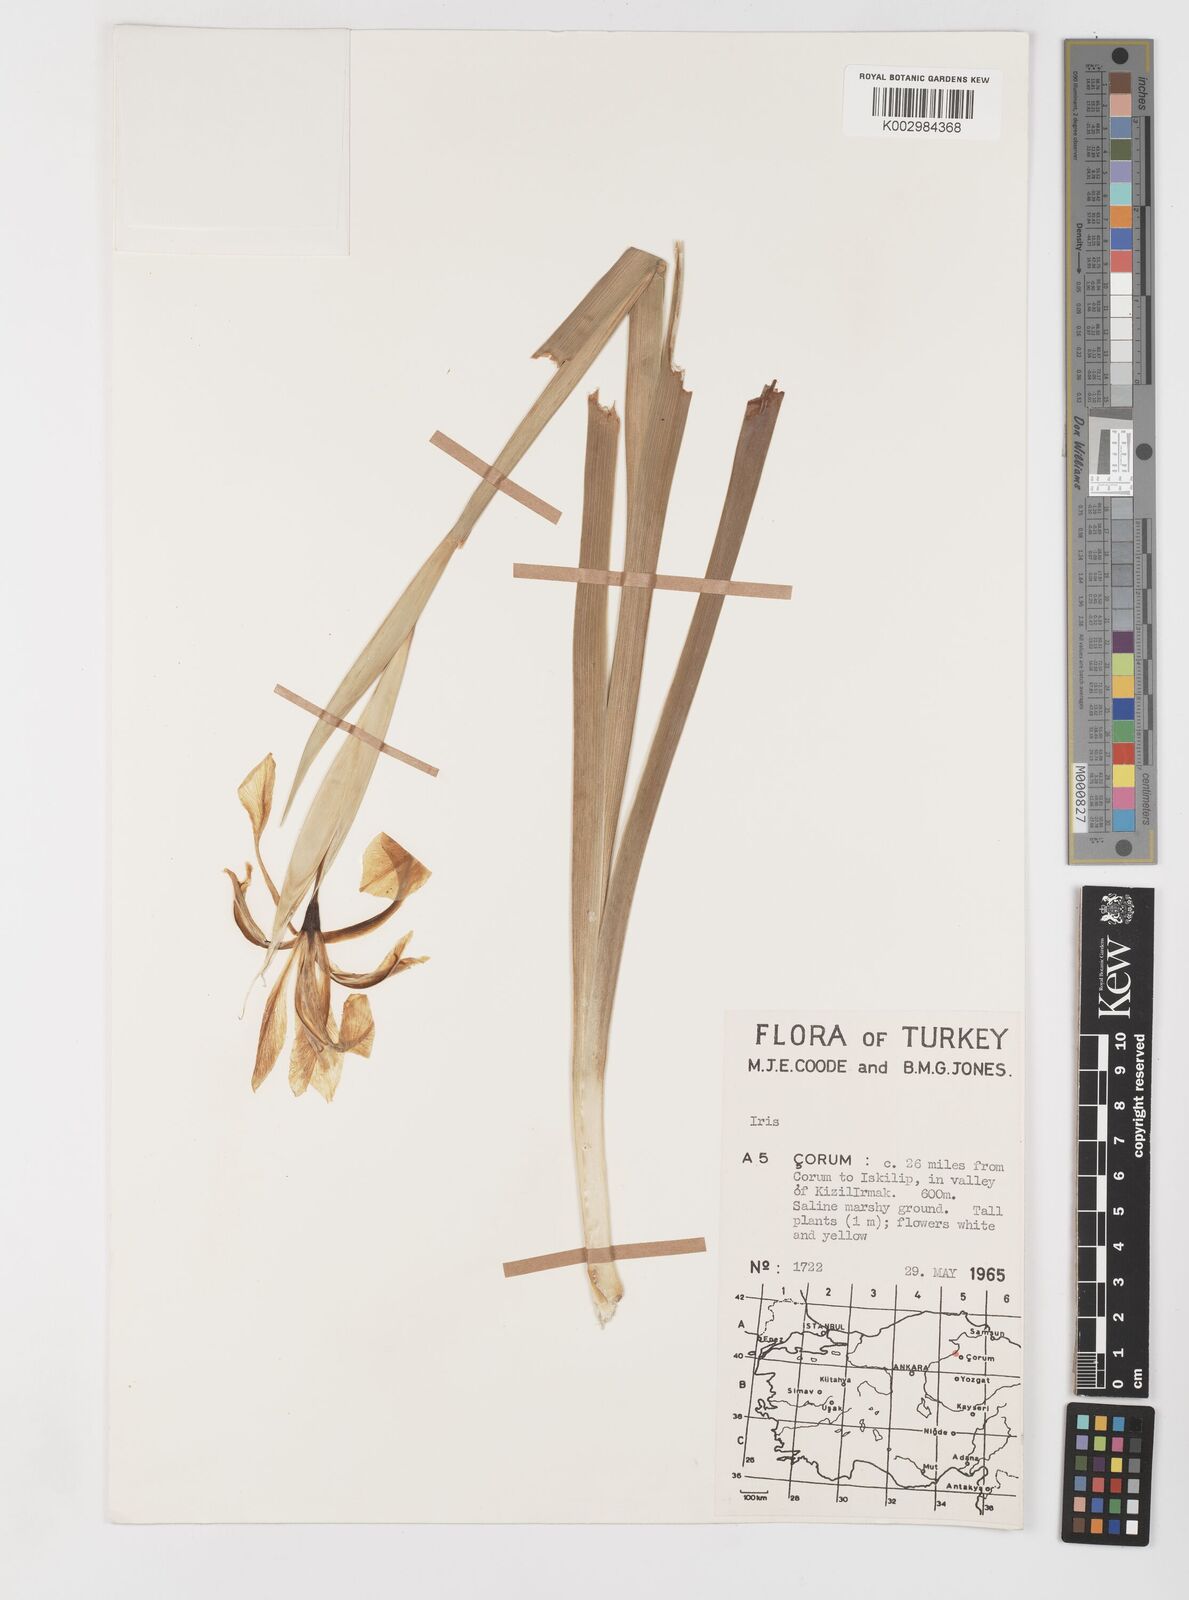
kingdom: Plantae
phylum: Tracheophyta
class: Liliopsida
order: Asparagales
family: Iridaceae
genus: Iris
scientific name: Iris orientalis
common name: Turkish iris
